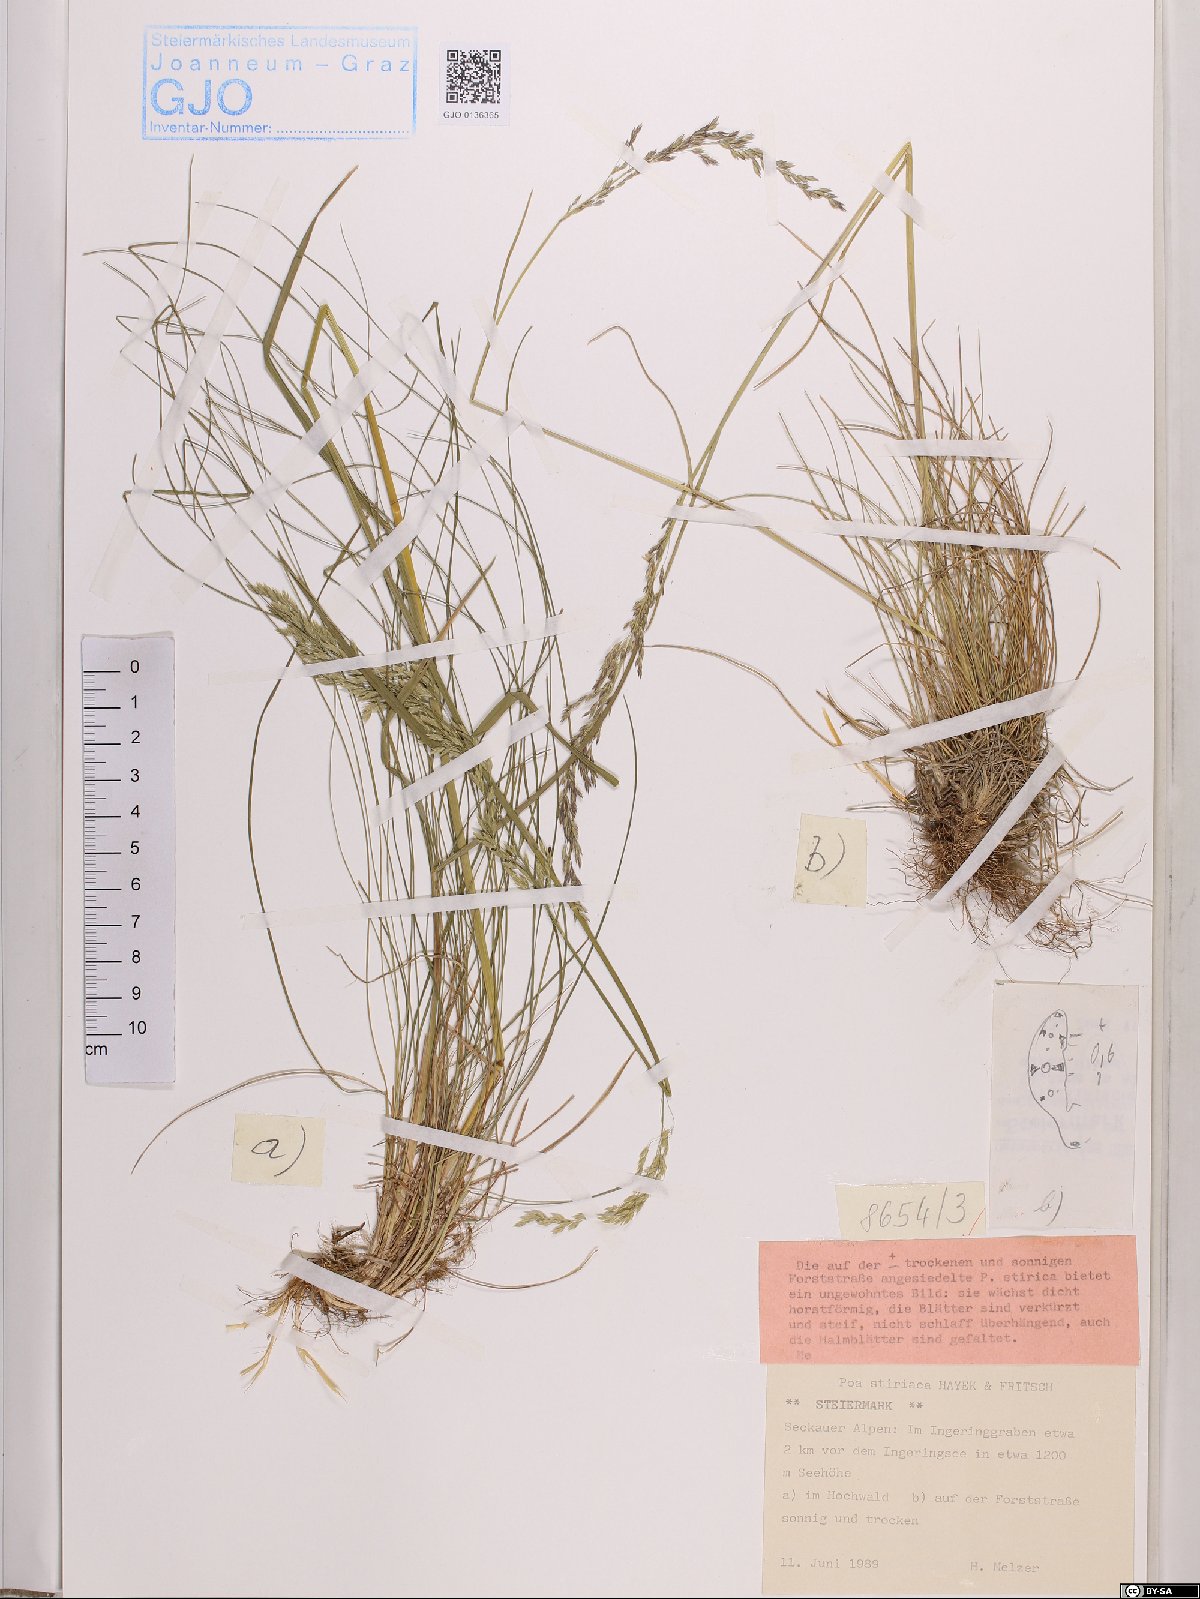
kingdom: Plantae
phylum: Tracheophyta
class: Liliopsida
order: Poales
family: Poaceae
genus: Poa
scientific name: Poa stiriaca
